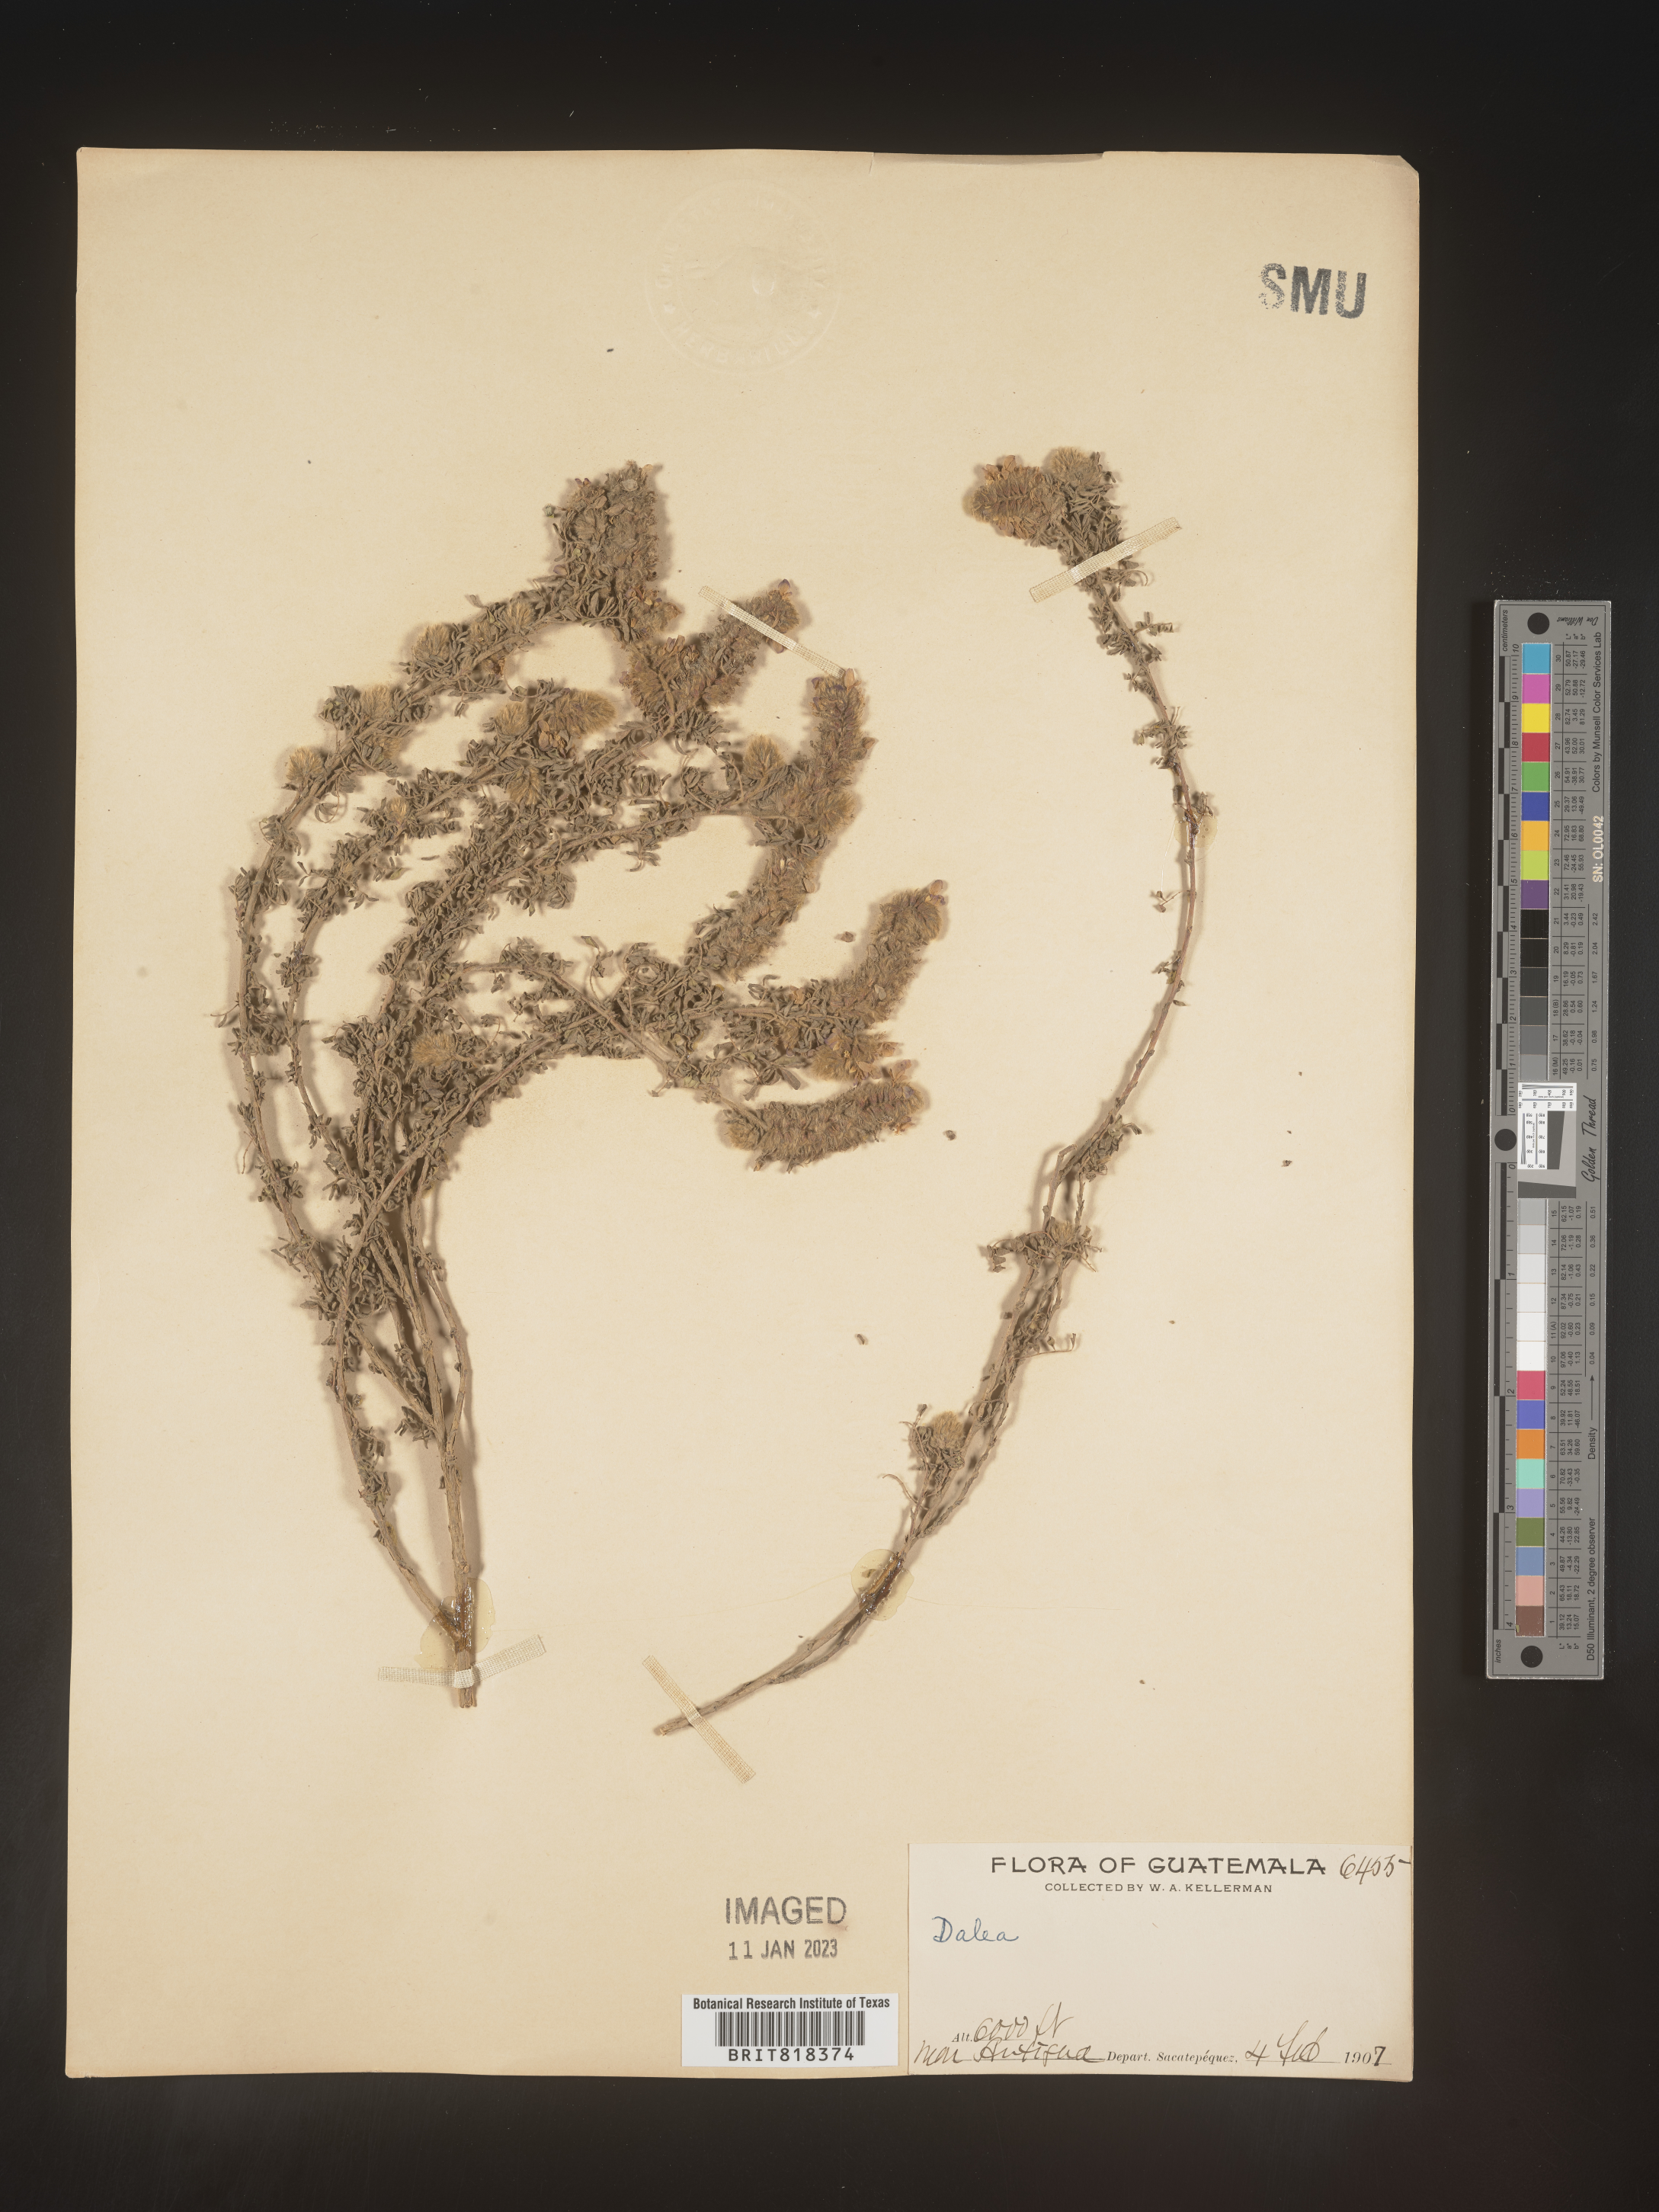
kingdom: Plantae
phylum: Tracheophyta
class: Magnoliopsida
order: Fabales
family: Fabaceae
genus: Dalea
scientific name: Dalea
